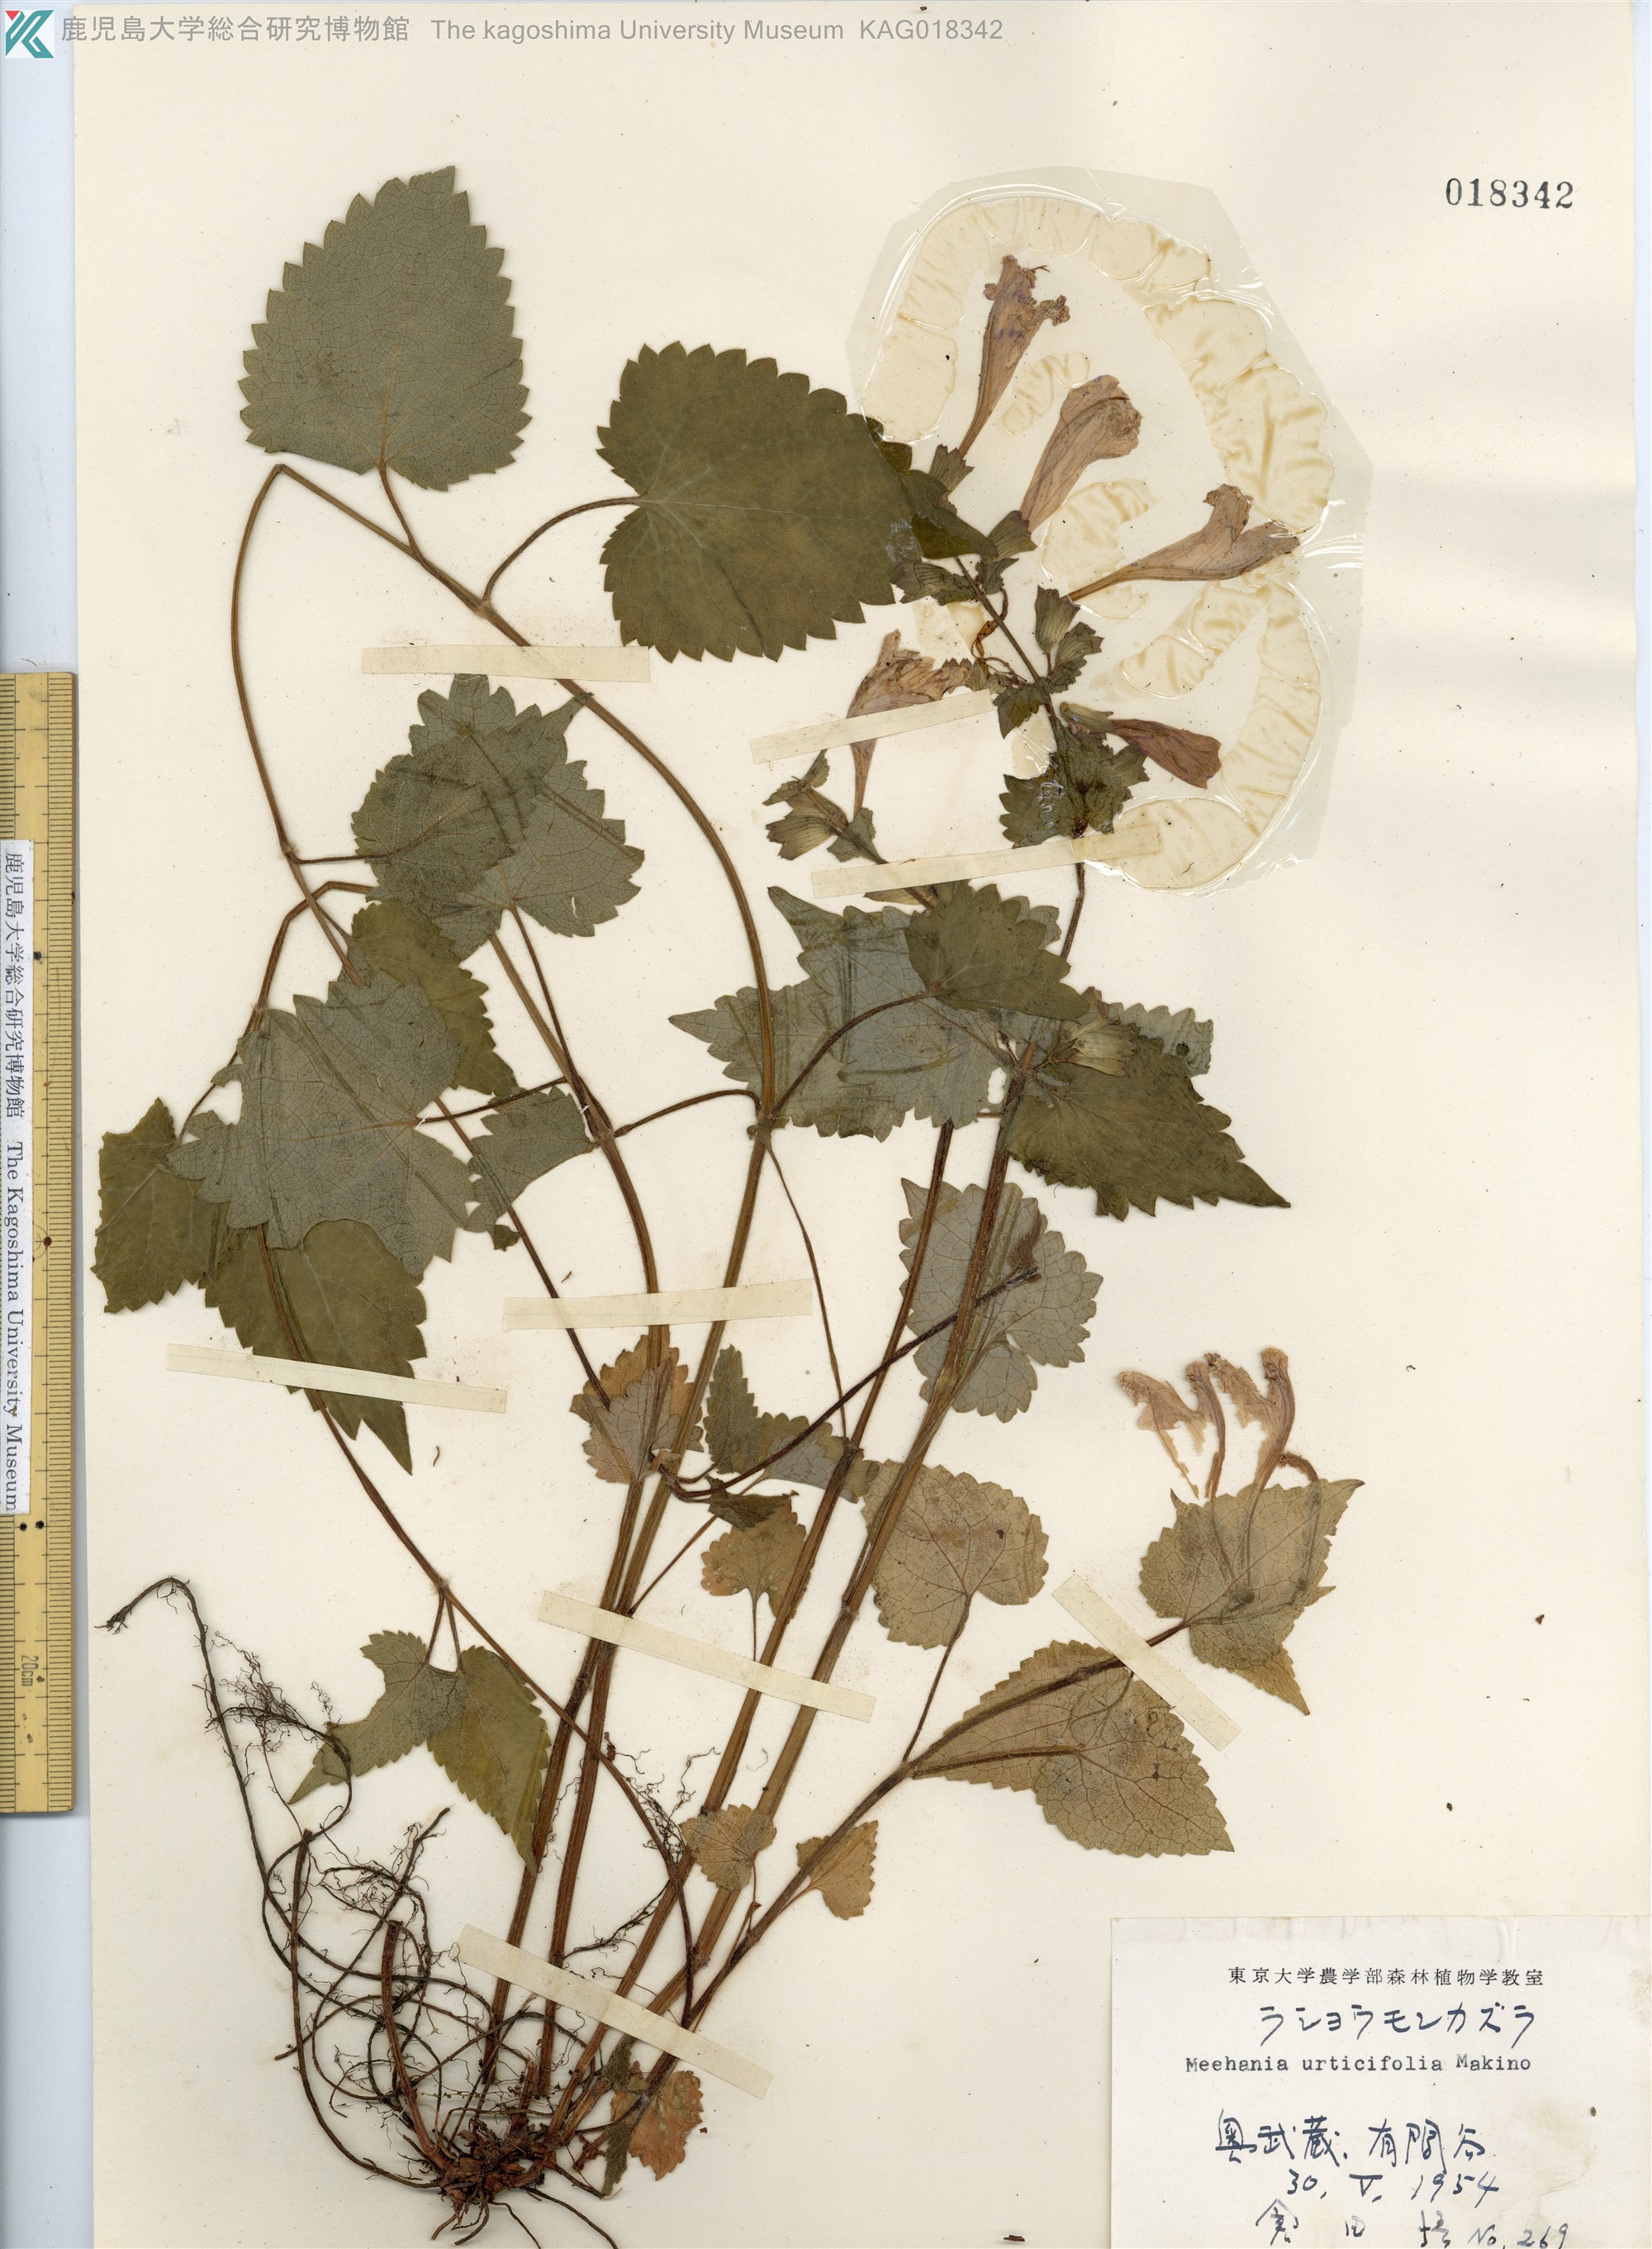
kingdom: Plantae
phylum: Tracheophyta
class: Magnoliopsida
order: Lamiales
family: Lamiaceae
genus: Meehania
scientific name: Meehania urticifolia
